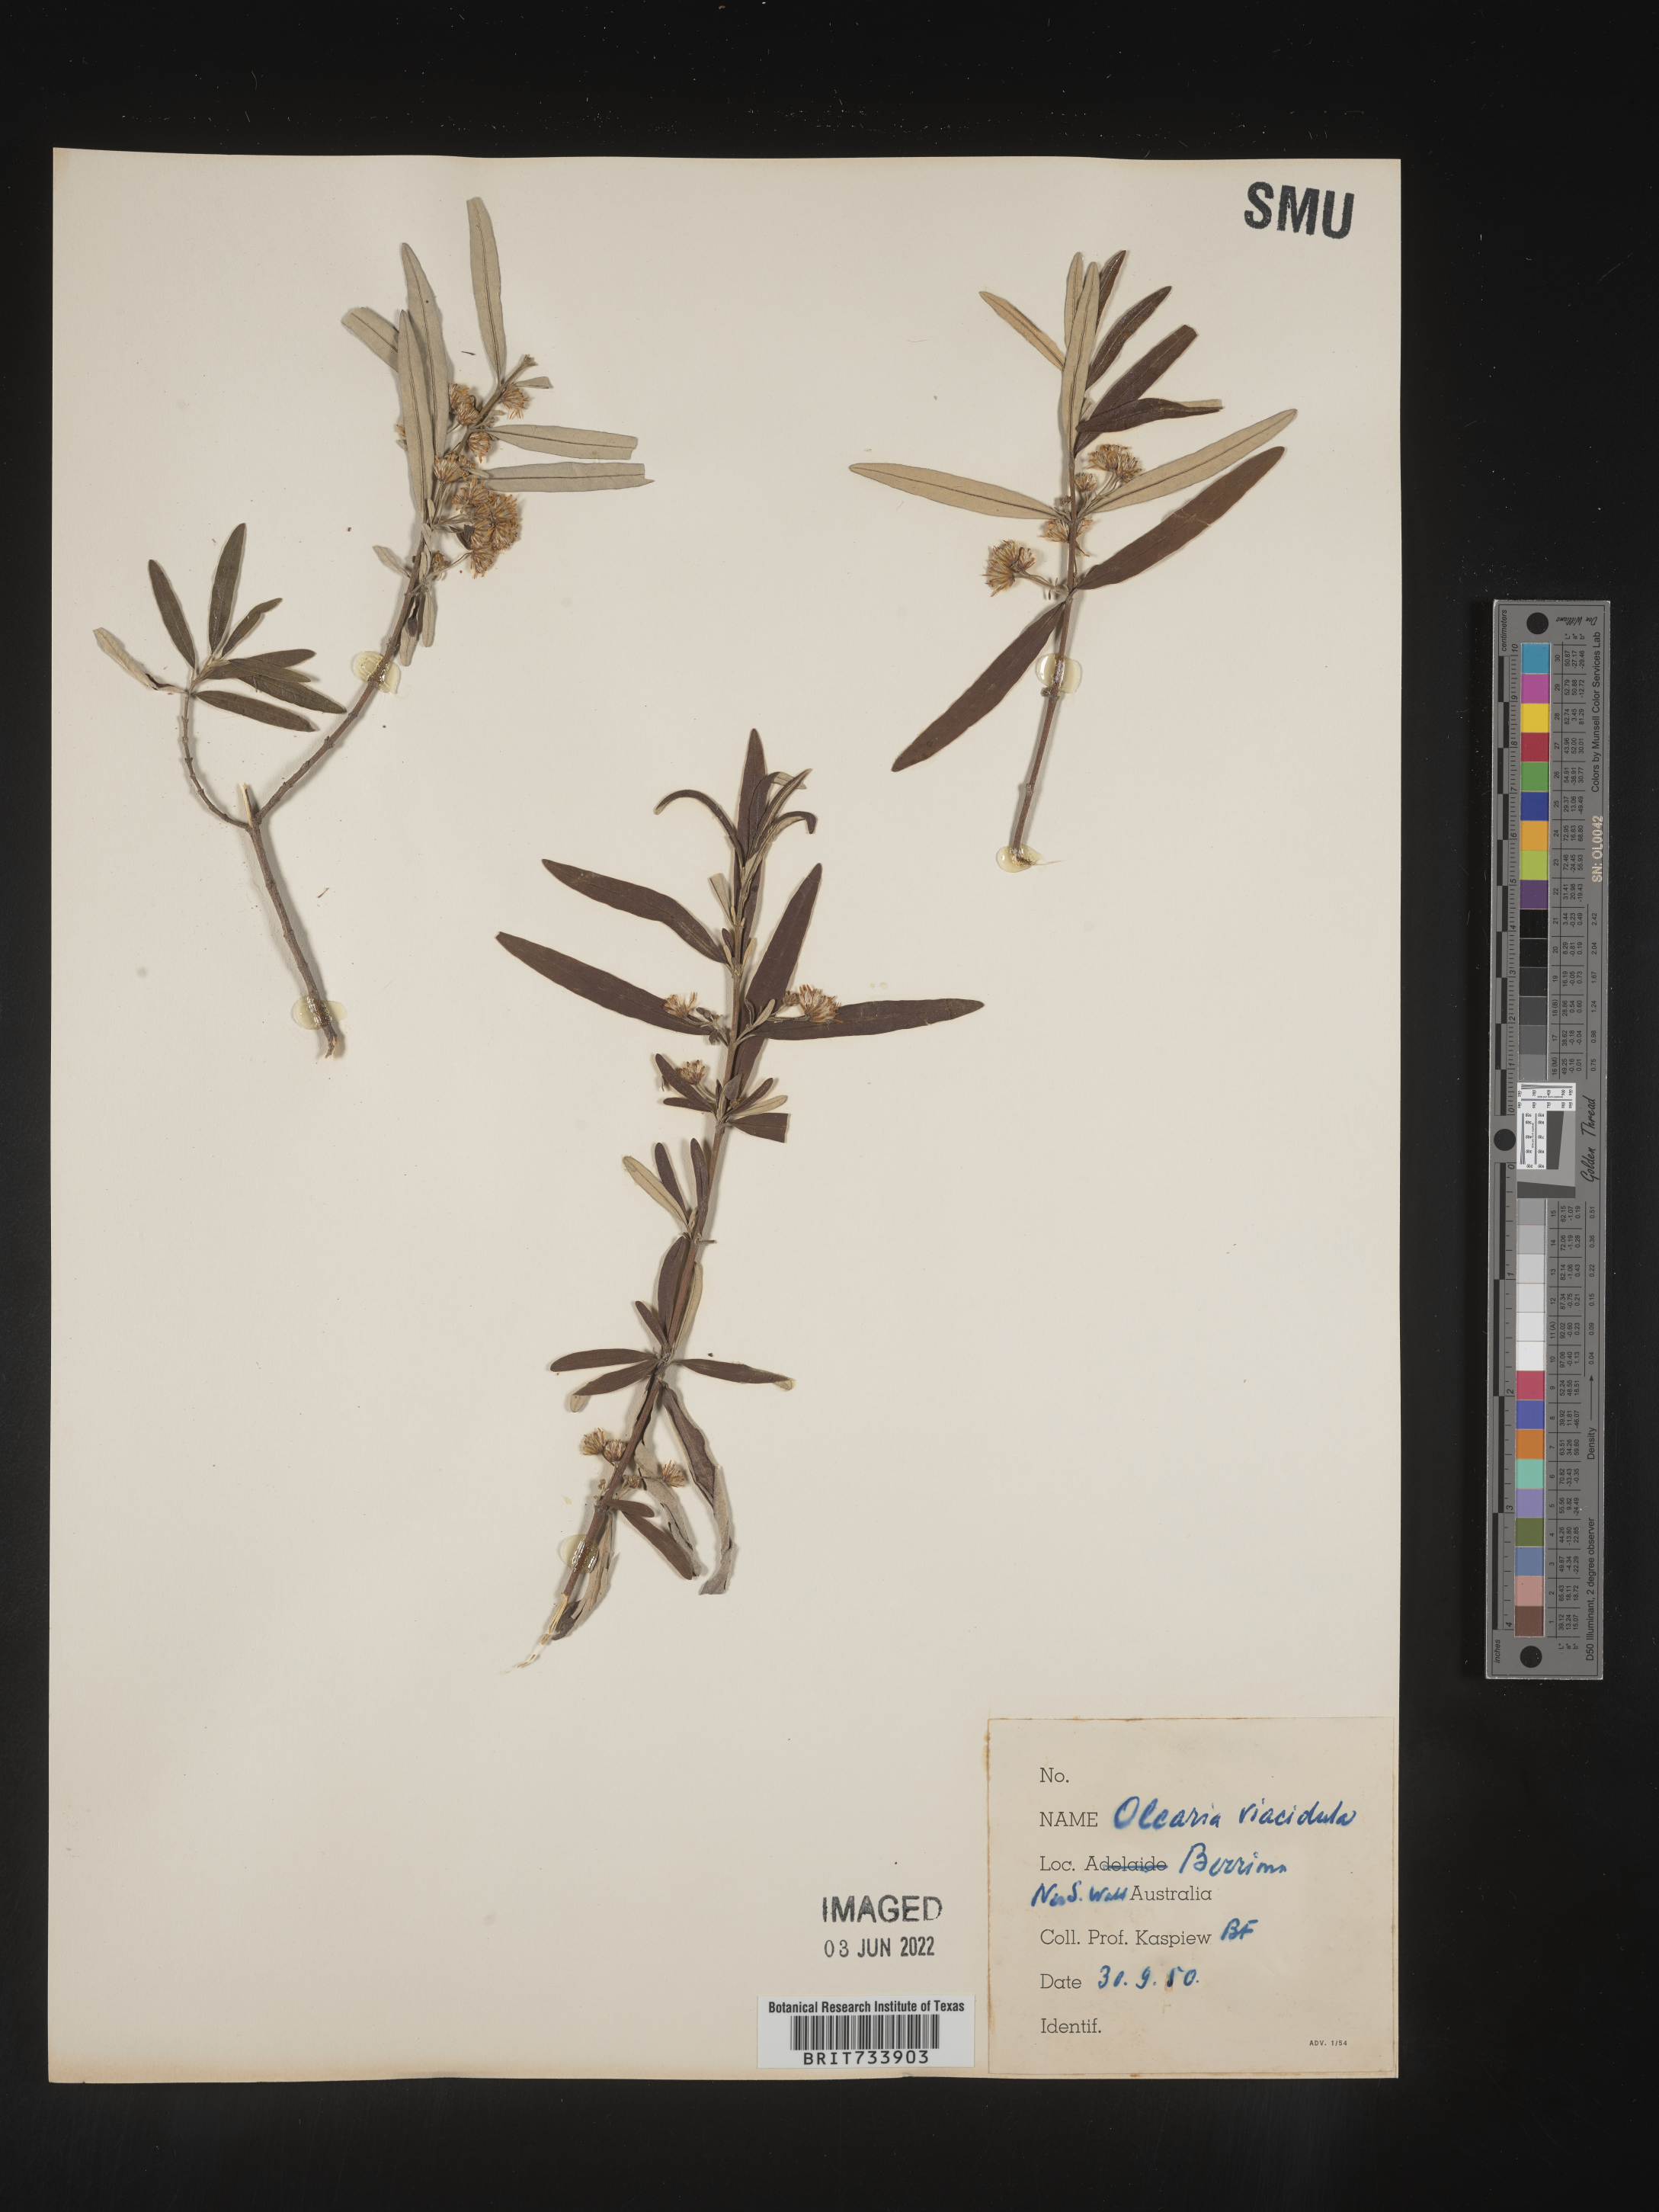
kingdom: Plantae
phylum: Tracheophyta
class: Magnoliopsida
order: Asterales
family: Asteraceae
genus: Olearia
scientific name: Olearia
